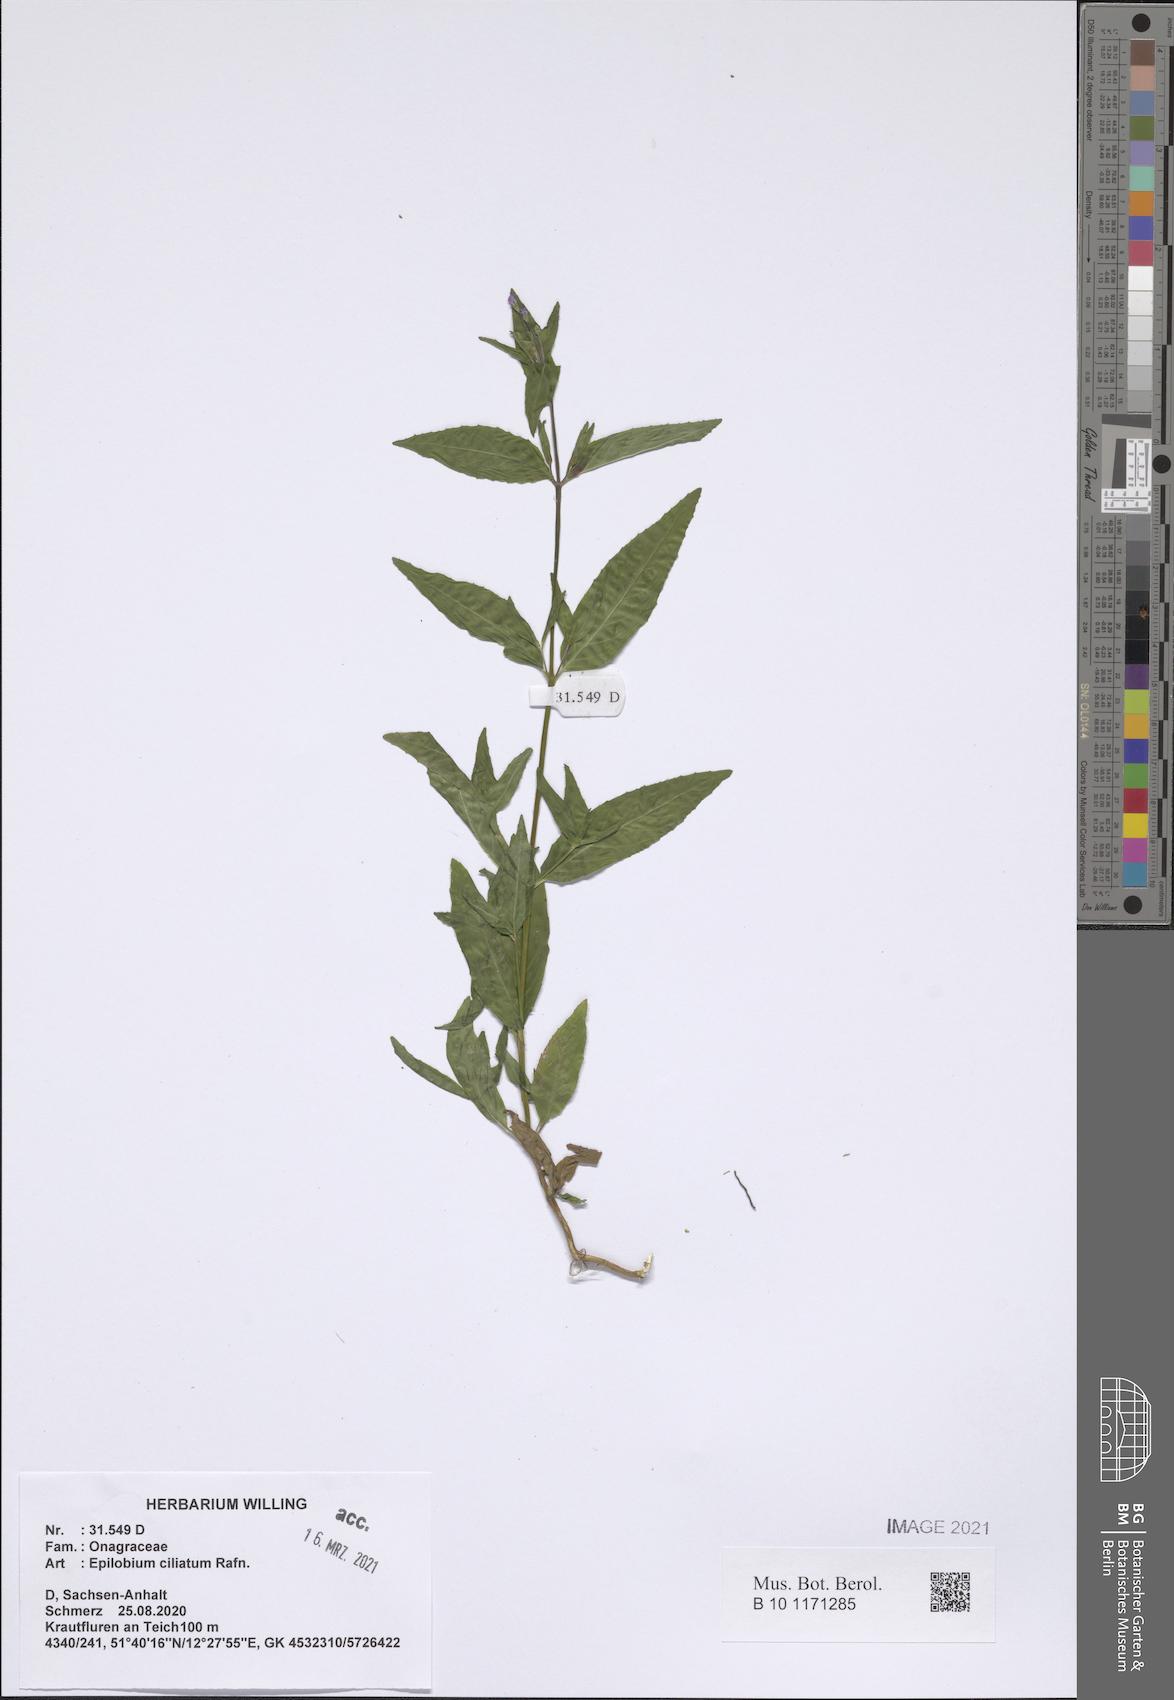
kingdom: Plantae
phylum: Tracheophyta
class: Magnoliopsida
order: Myrtales
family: Onagraceae
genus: Epilobium
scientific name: Epilobium ciliatum
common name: American willowherb
